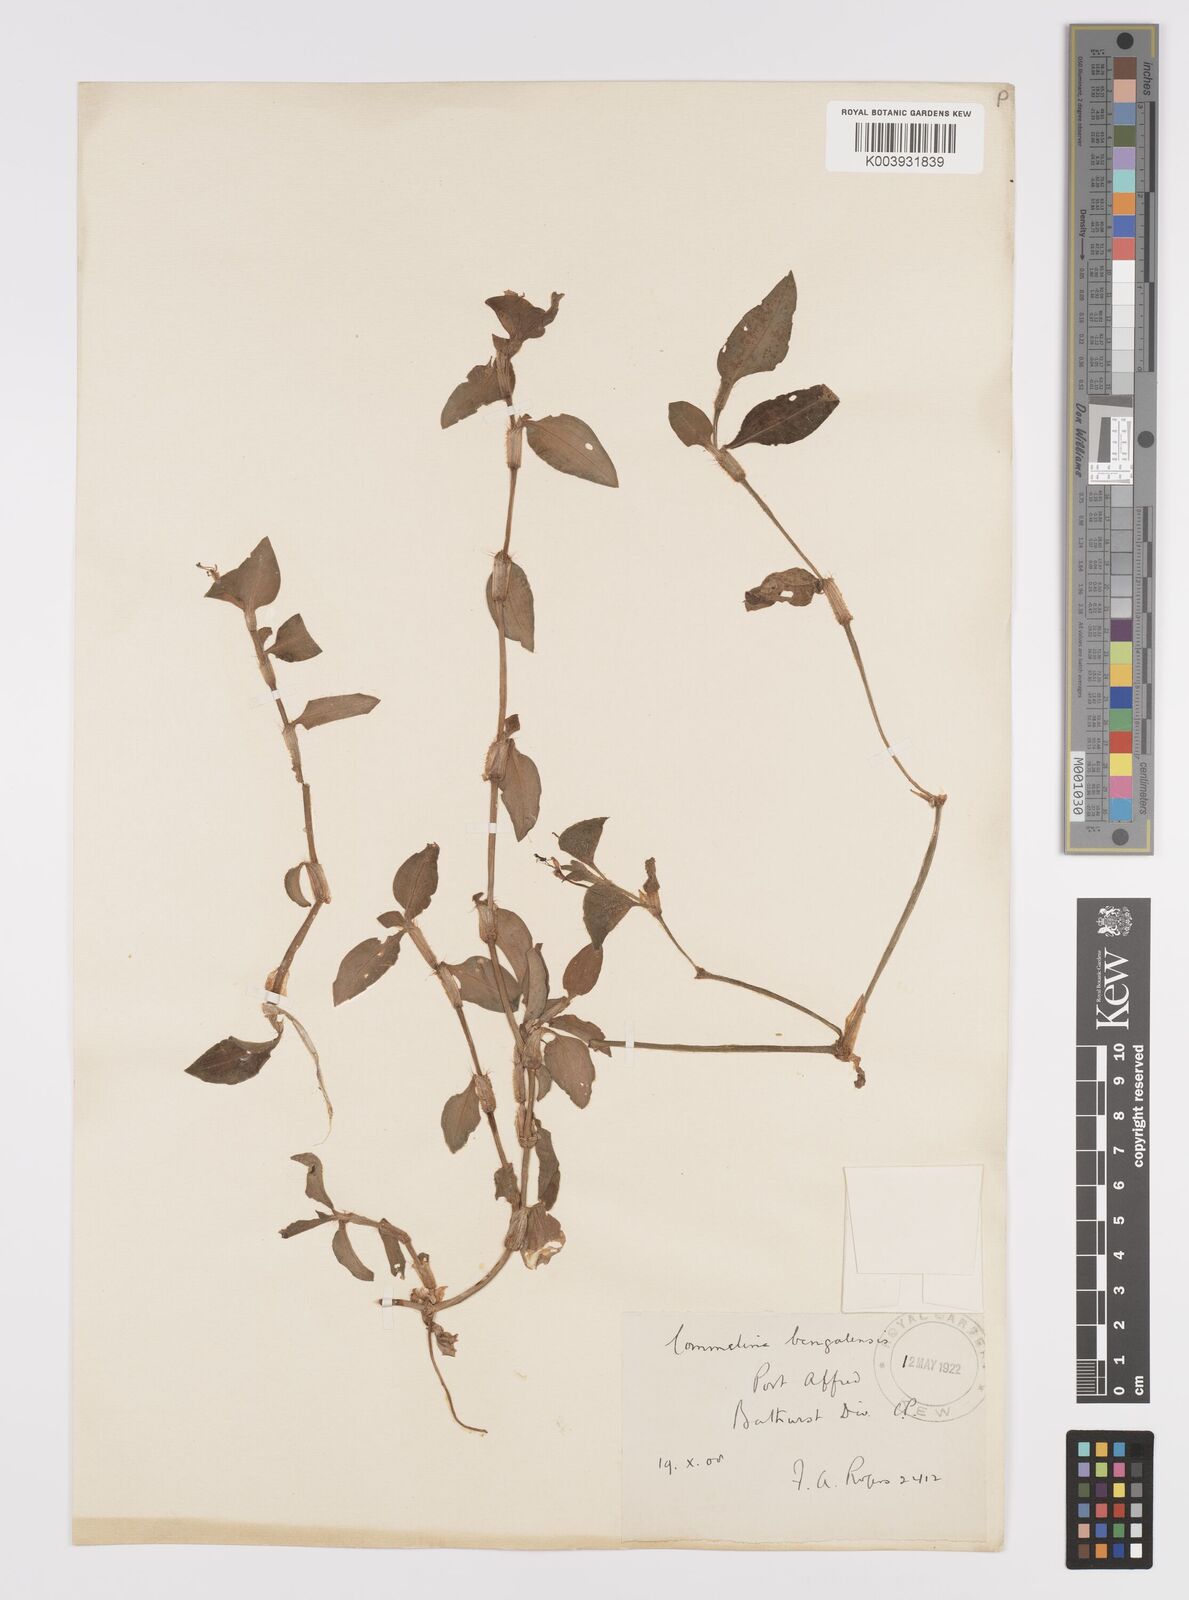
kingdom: Plantae
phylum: Tracheophyta
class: Liliopsida
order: Commelinales
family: Commelinaceae
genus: Commelina
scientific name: Commelina benghalensis
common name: Jio
